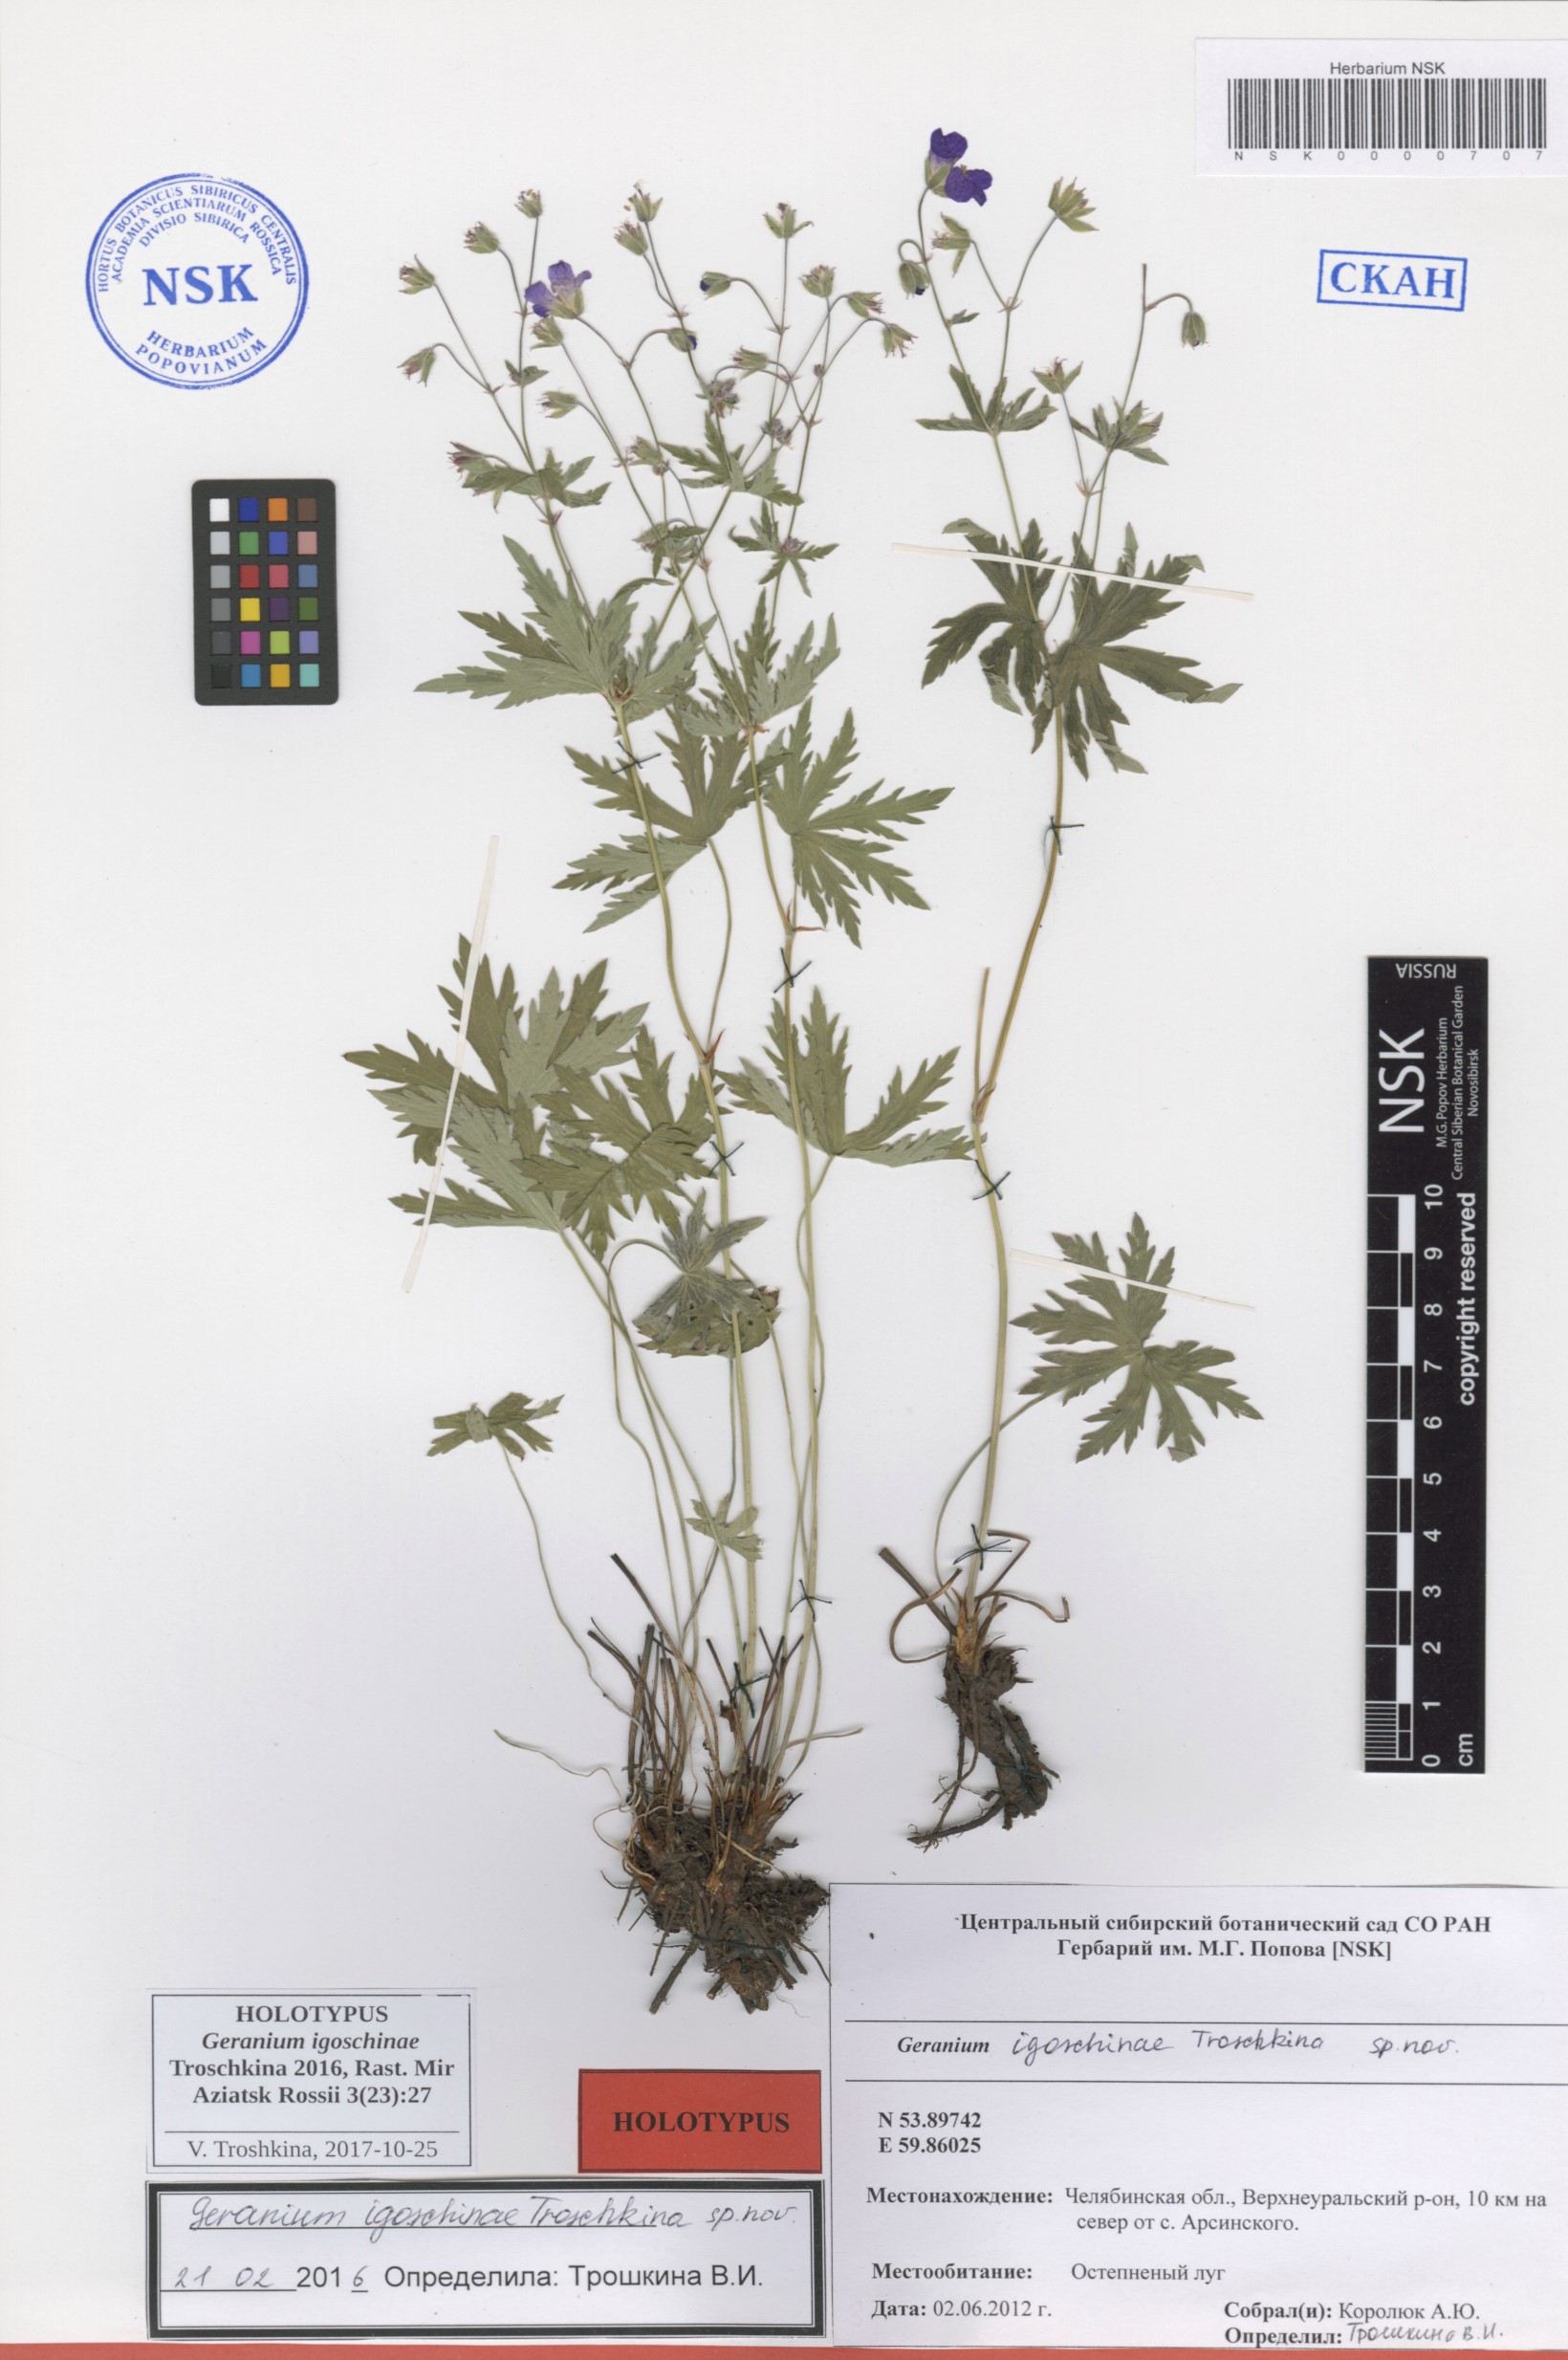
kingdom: Plantae
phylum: Tracheophyta
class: Magnoliopsida
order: Geraniales
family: Geraniaceae
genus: Geranium
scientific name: Geranium igoschinae
